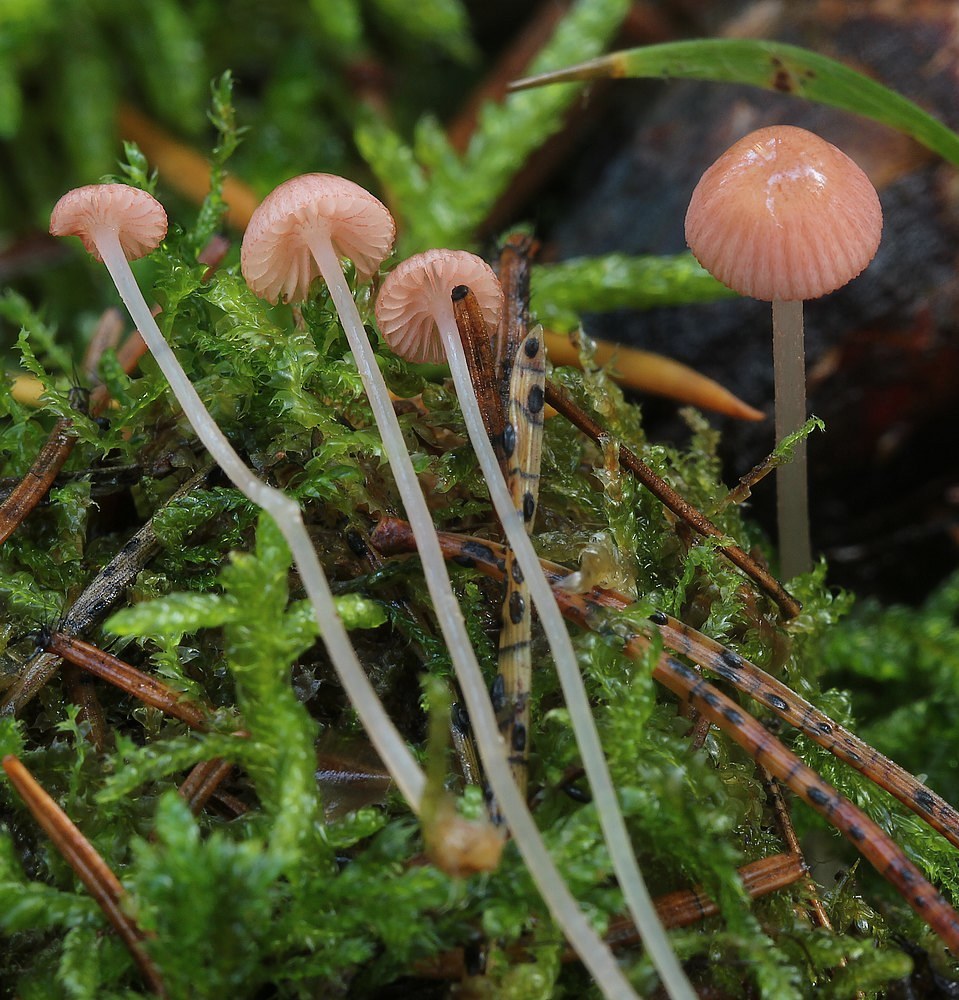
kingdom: Fungi
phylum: Basidiomycota
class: Agaricomycetes
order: Agaricales
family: Mycenaceae
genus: Mycena
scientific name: Mycena rosella
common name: rosenrød huesvamp
